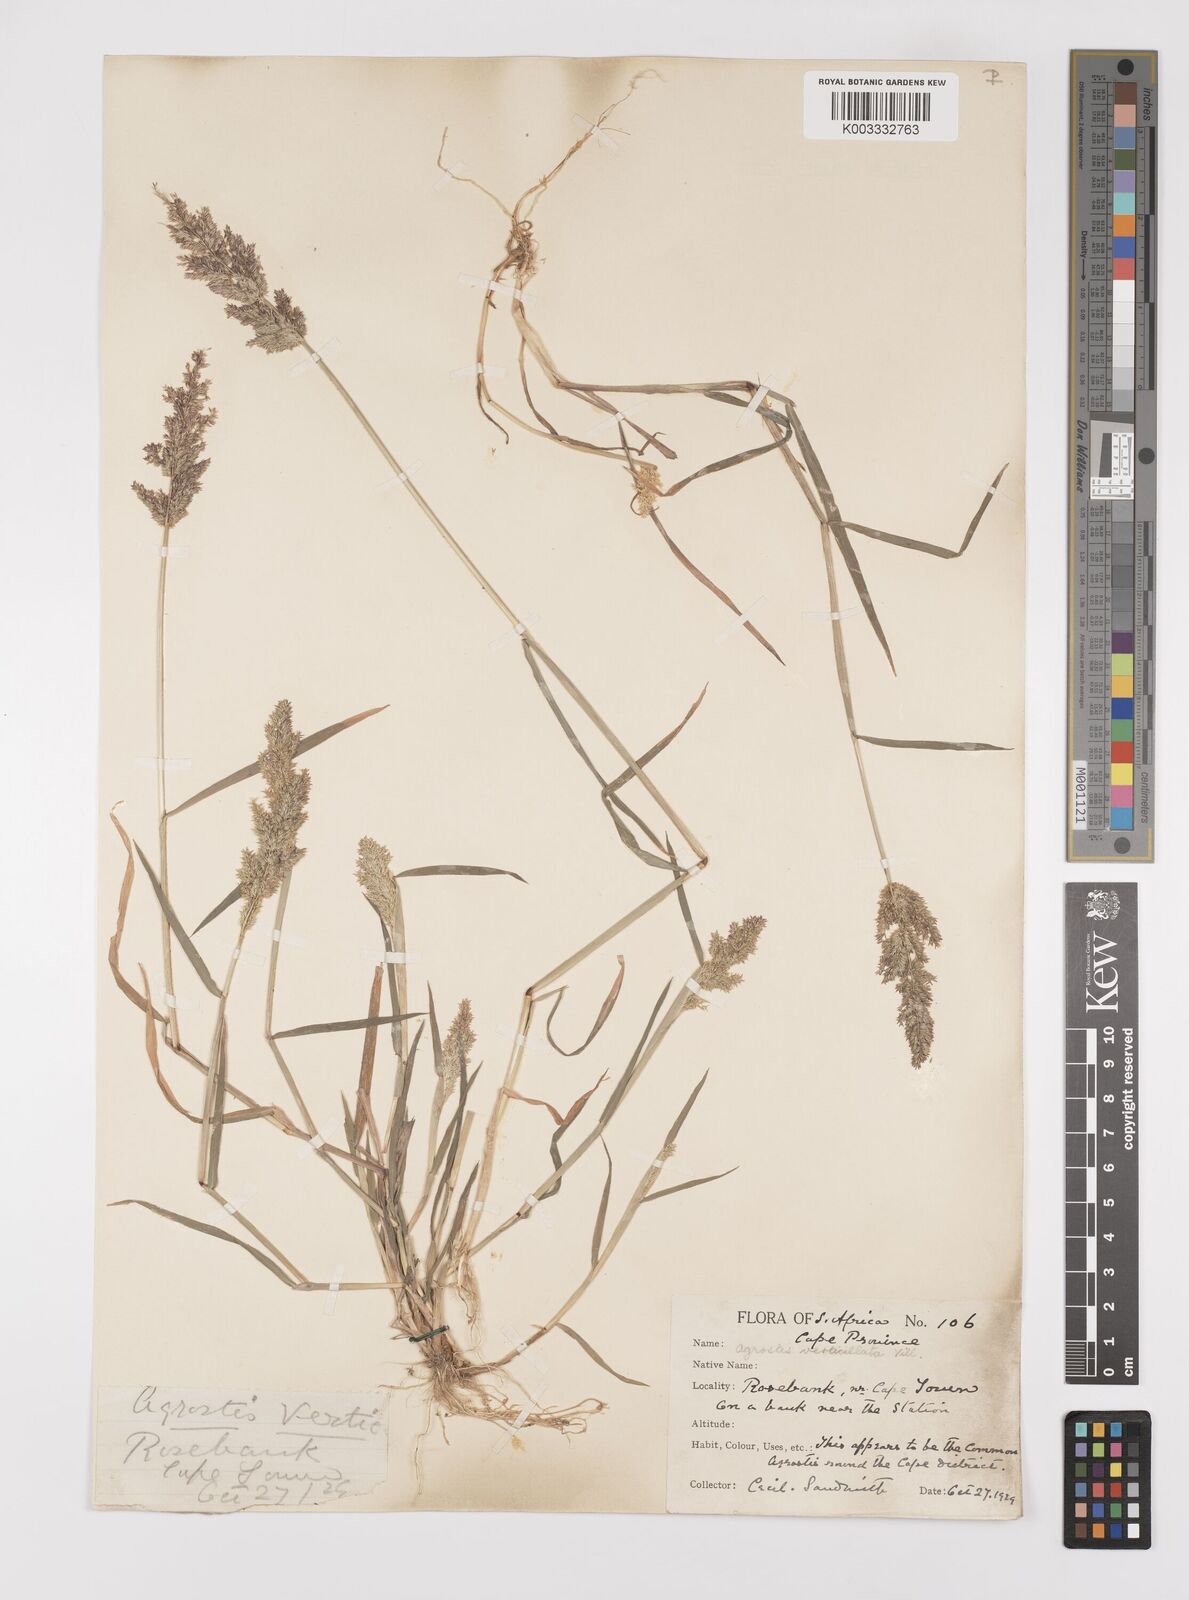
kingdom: Plantae
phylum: Tracheophyta
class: Liliopsida
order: Poales
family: Poaceae
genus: Polypogon
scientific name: Polypogon viridis
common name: Water bent
